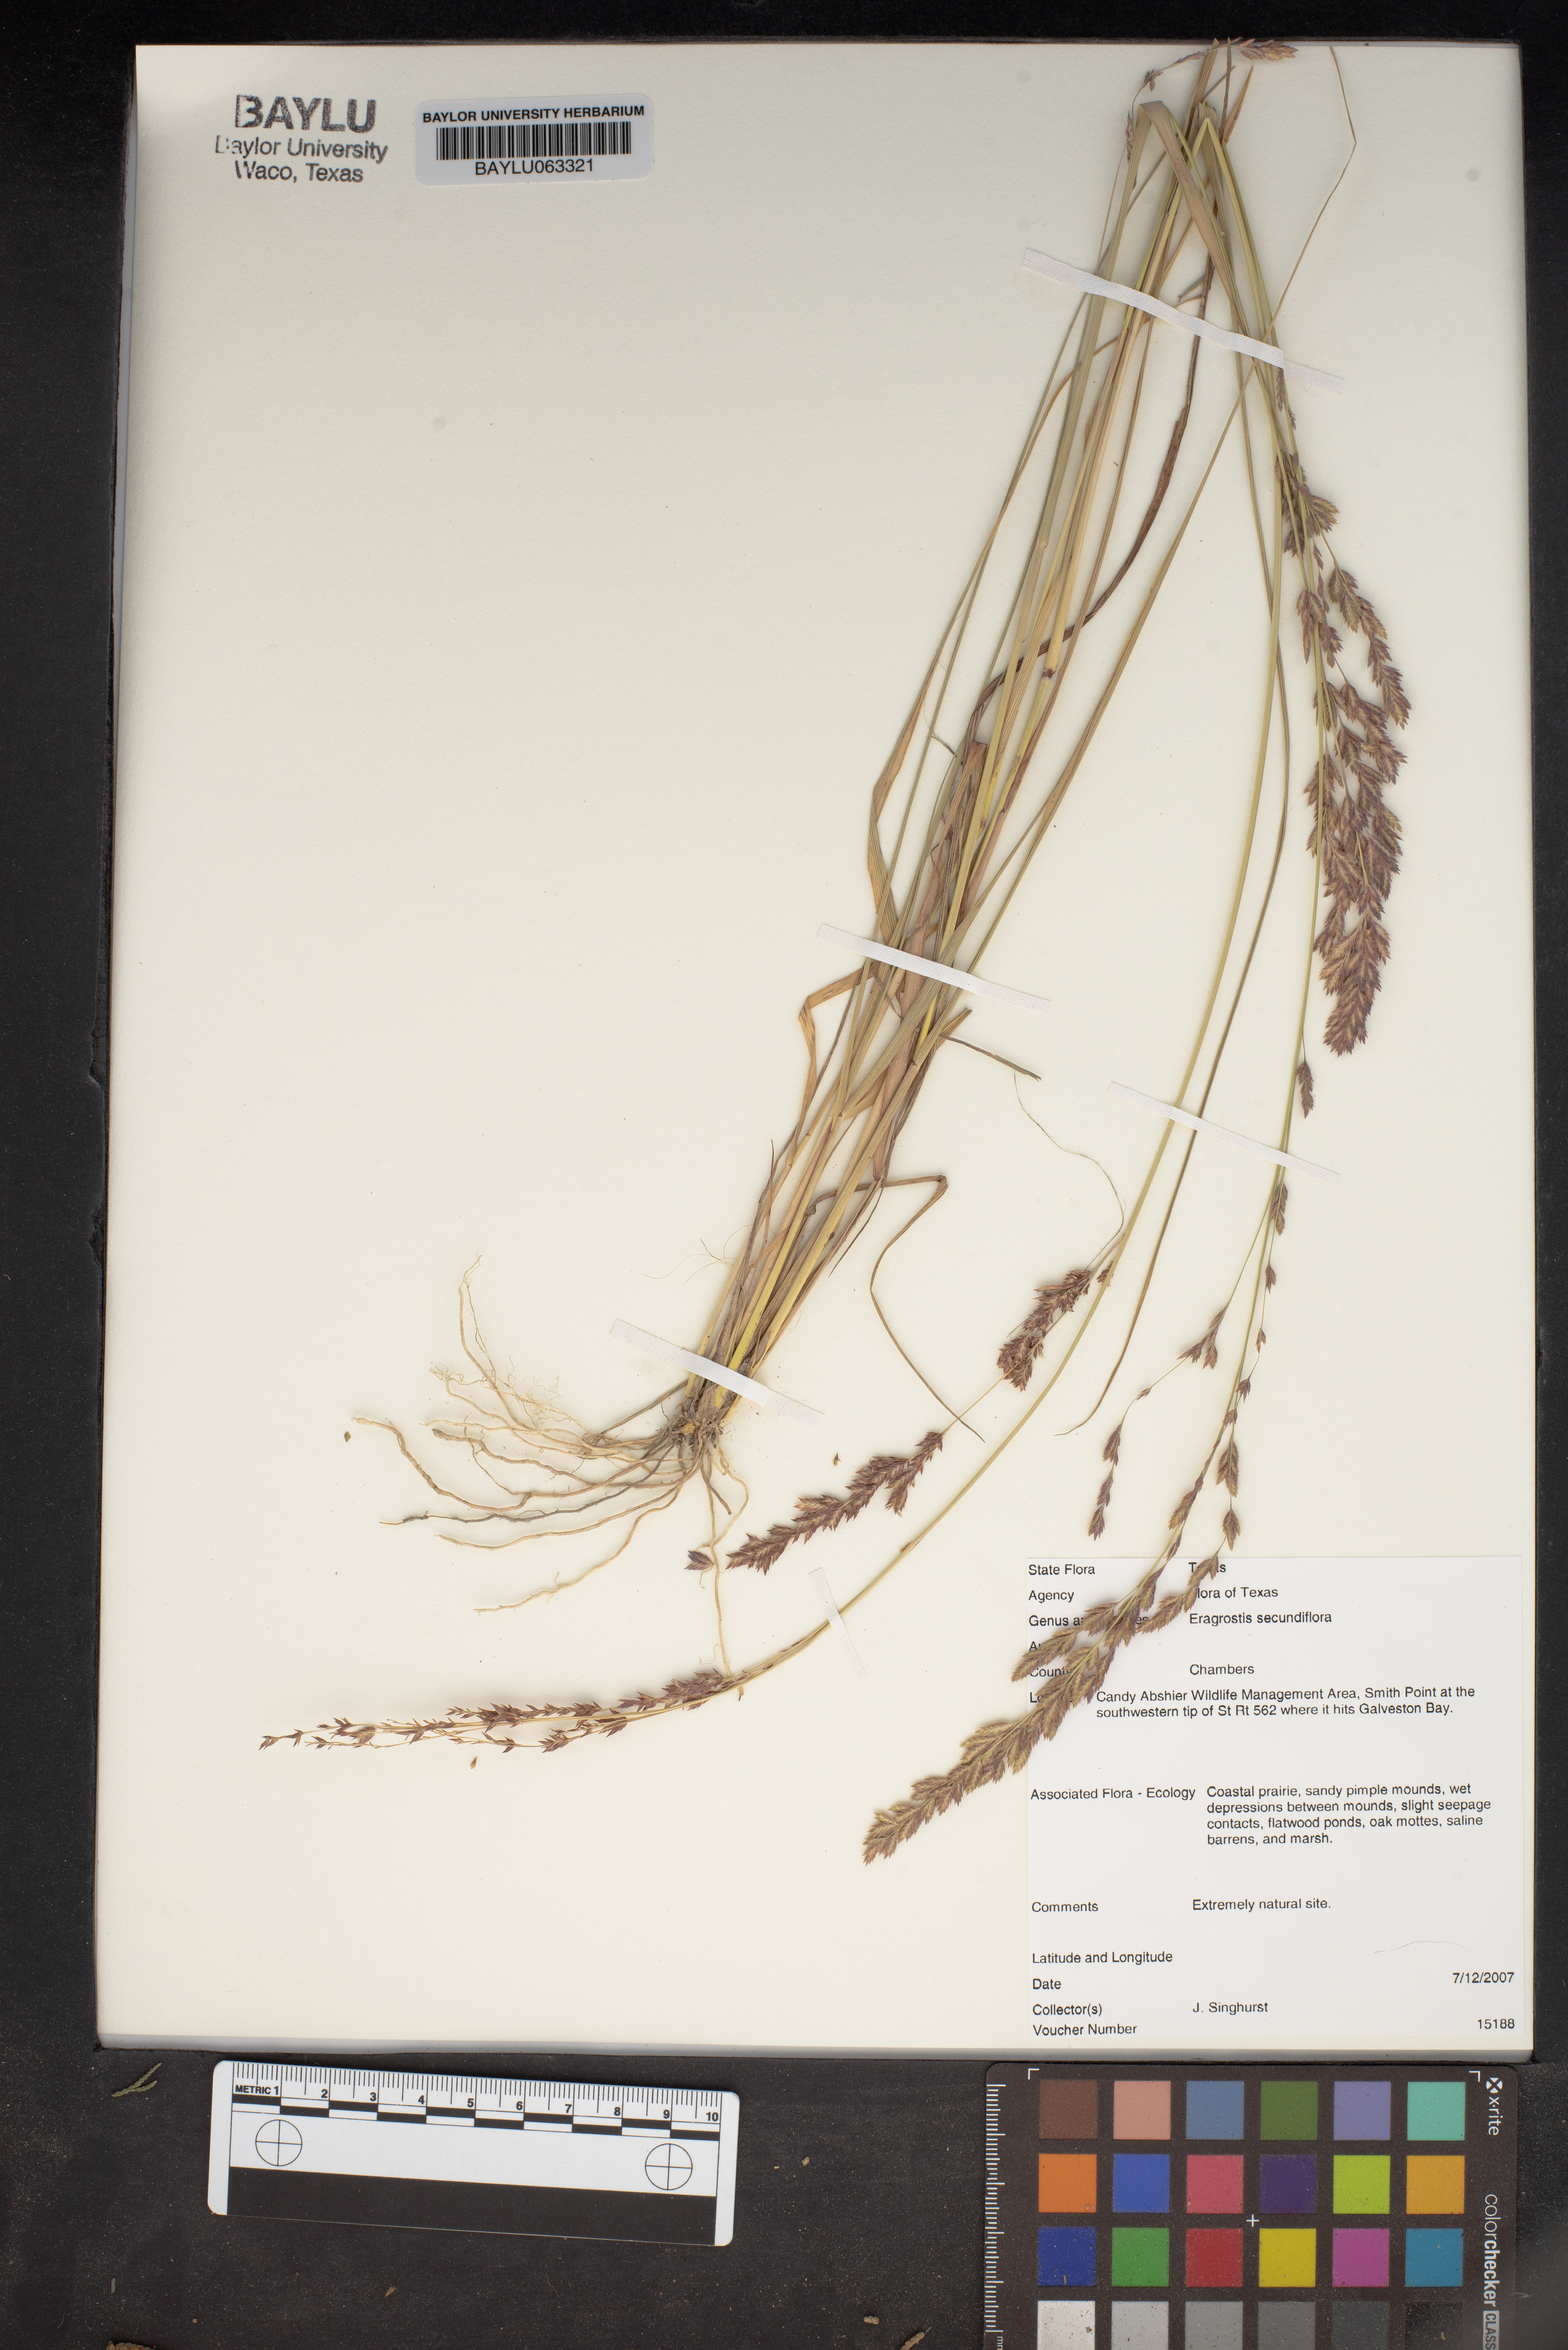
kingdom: Plantae
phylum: Tracheophyta
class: Liliopsida
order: Poales
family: Poaceae
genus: Eragrostis
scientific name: Eragrostis secundiflora
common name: Red love grass
